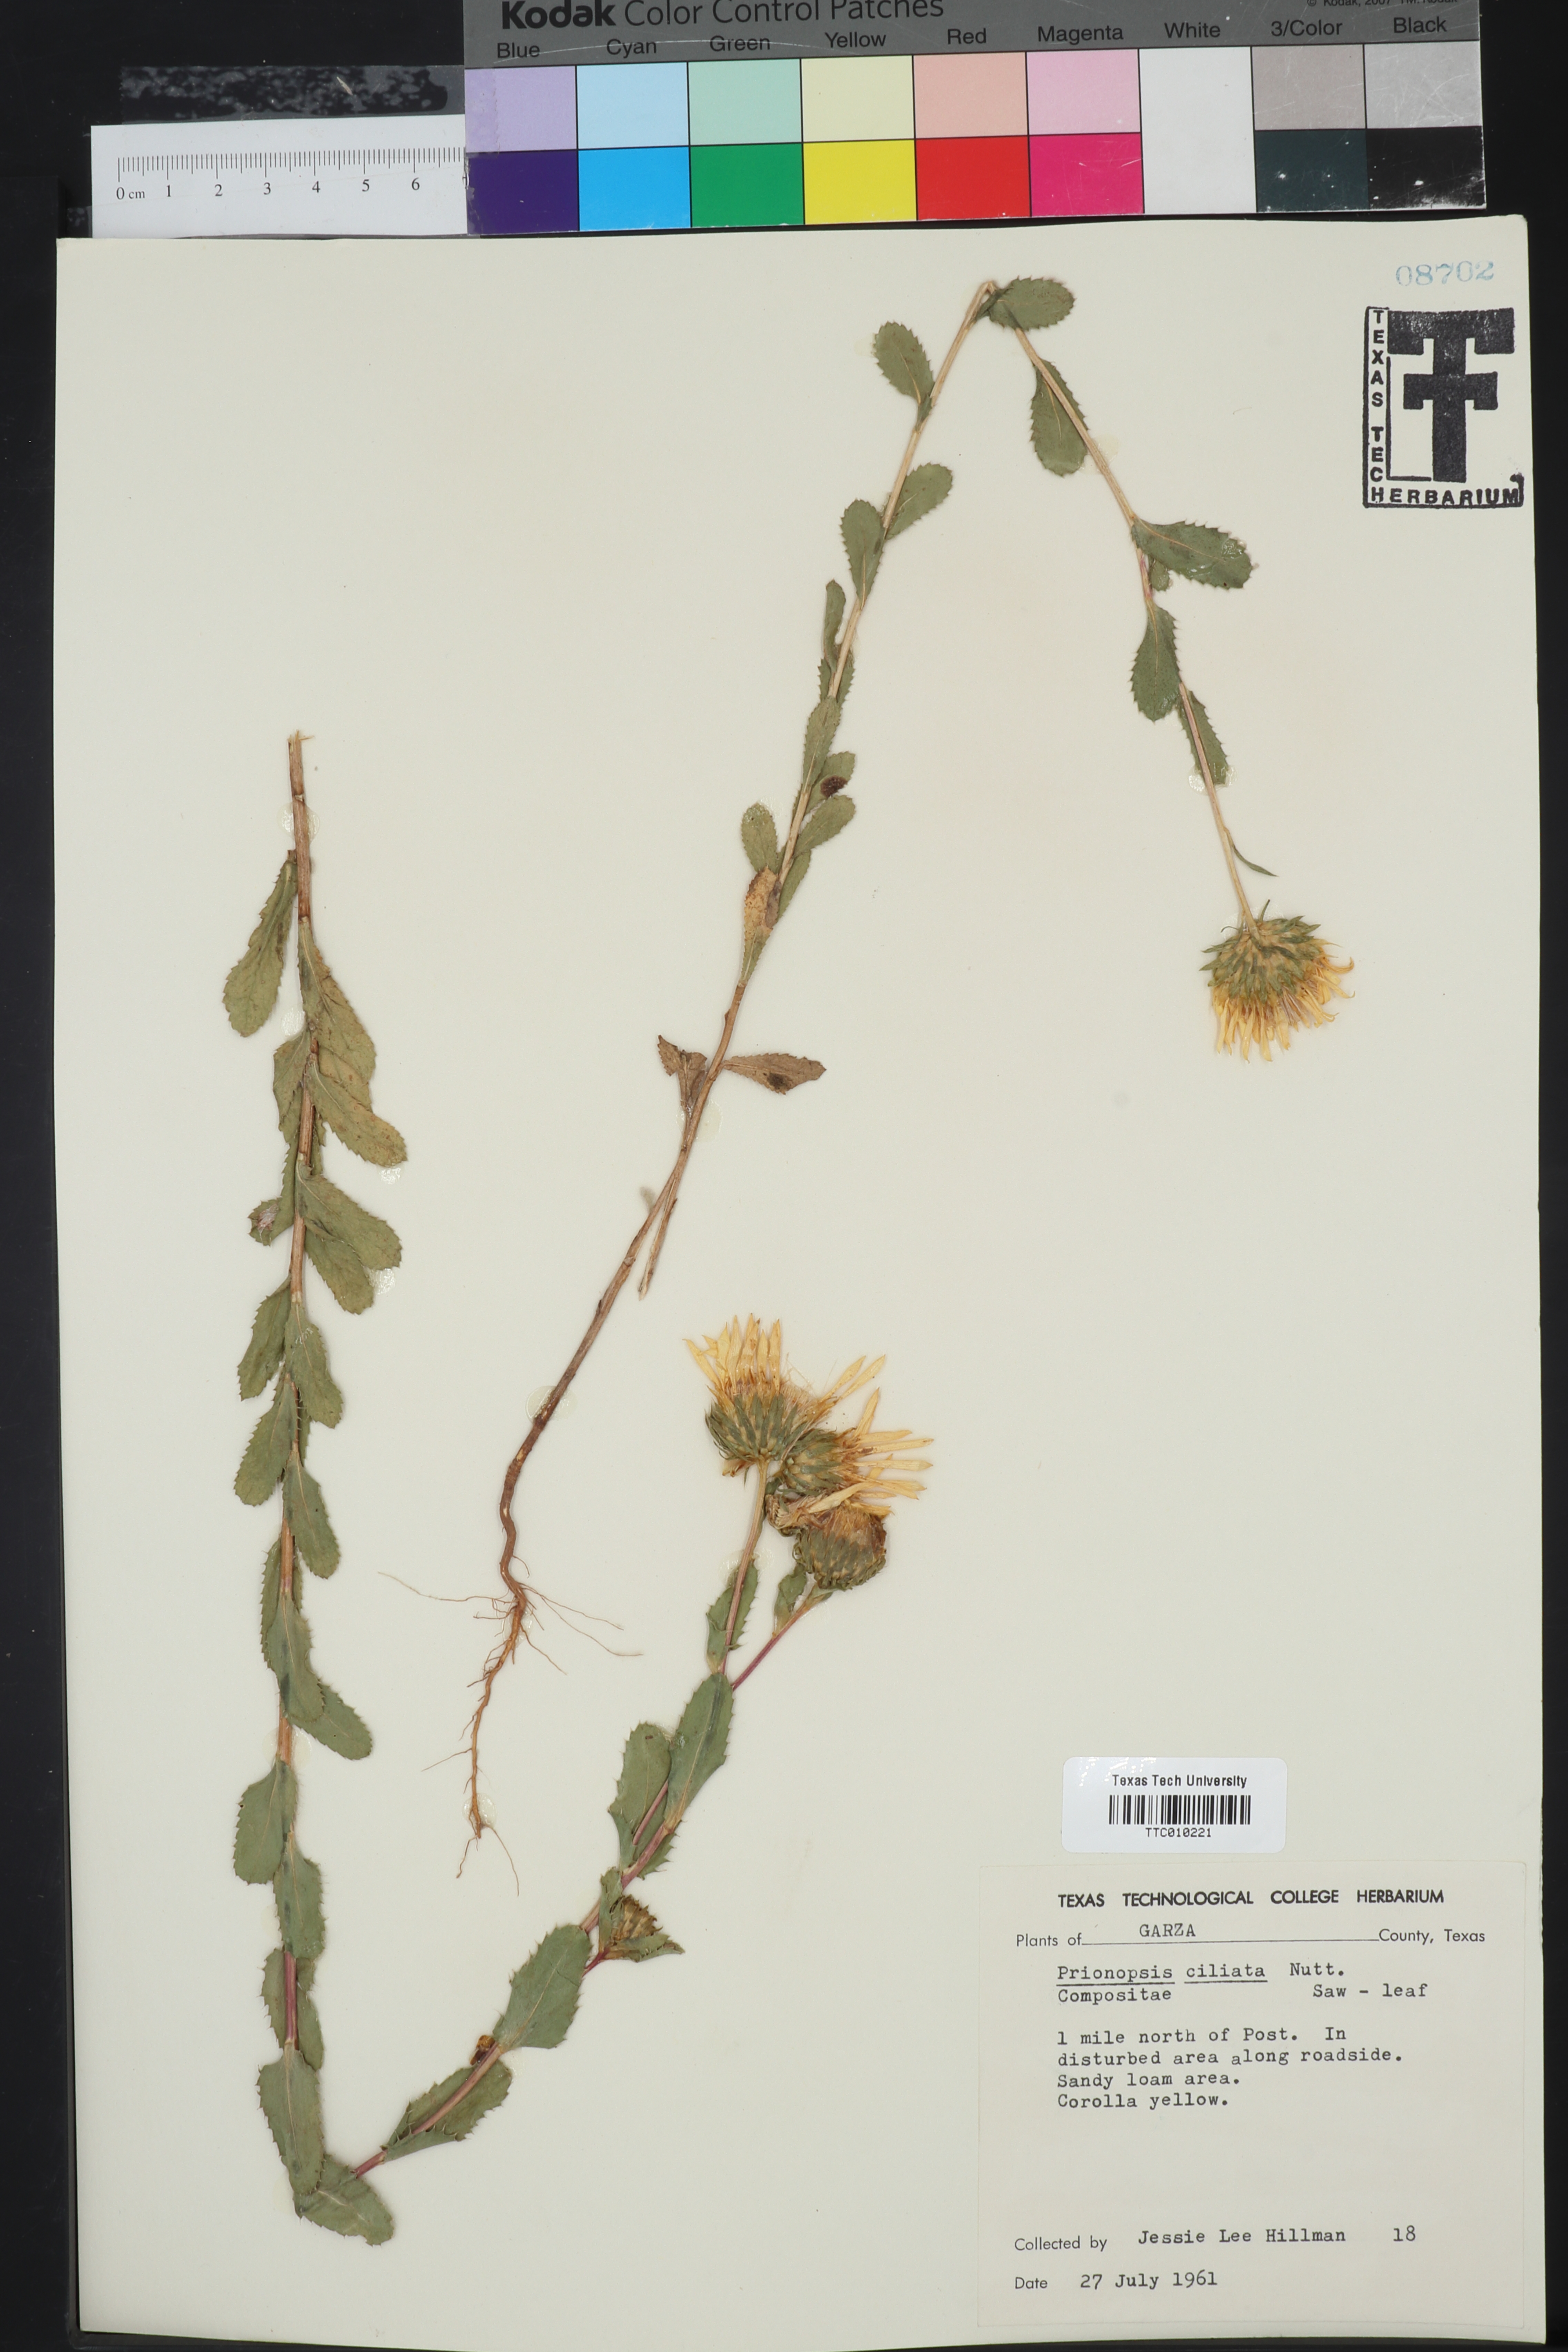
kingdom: Plantae
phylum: Tracheophyta
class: Magnoliopsida
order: Asterales
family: Asteraceae
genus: Grindelia
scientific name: Grindelia ciliata
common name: Goldenweed
